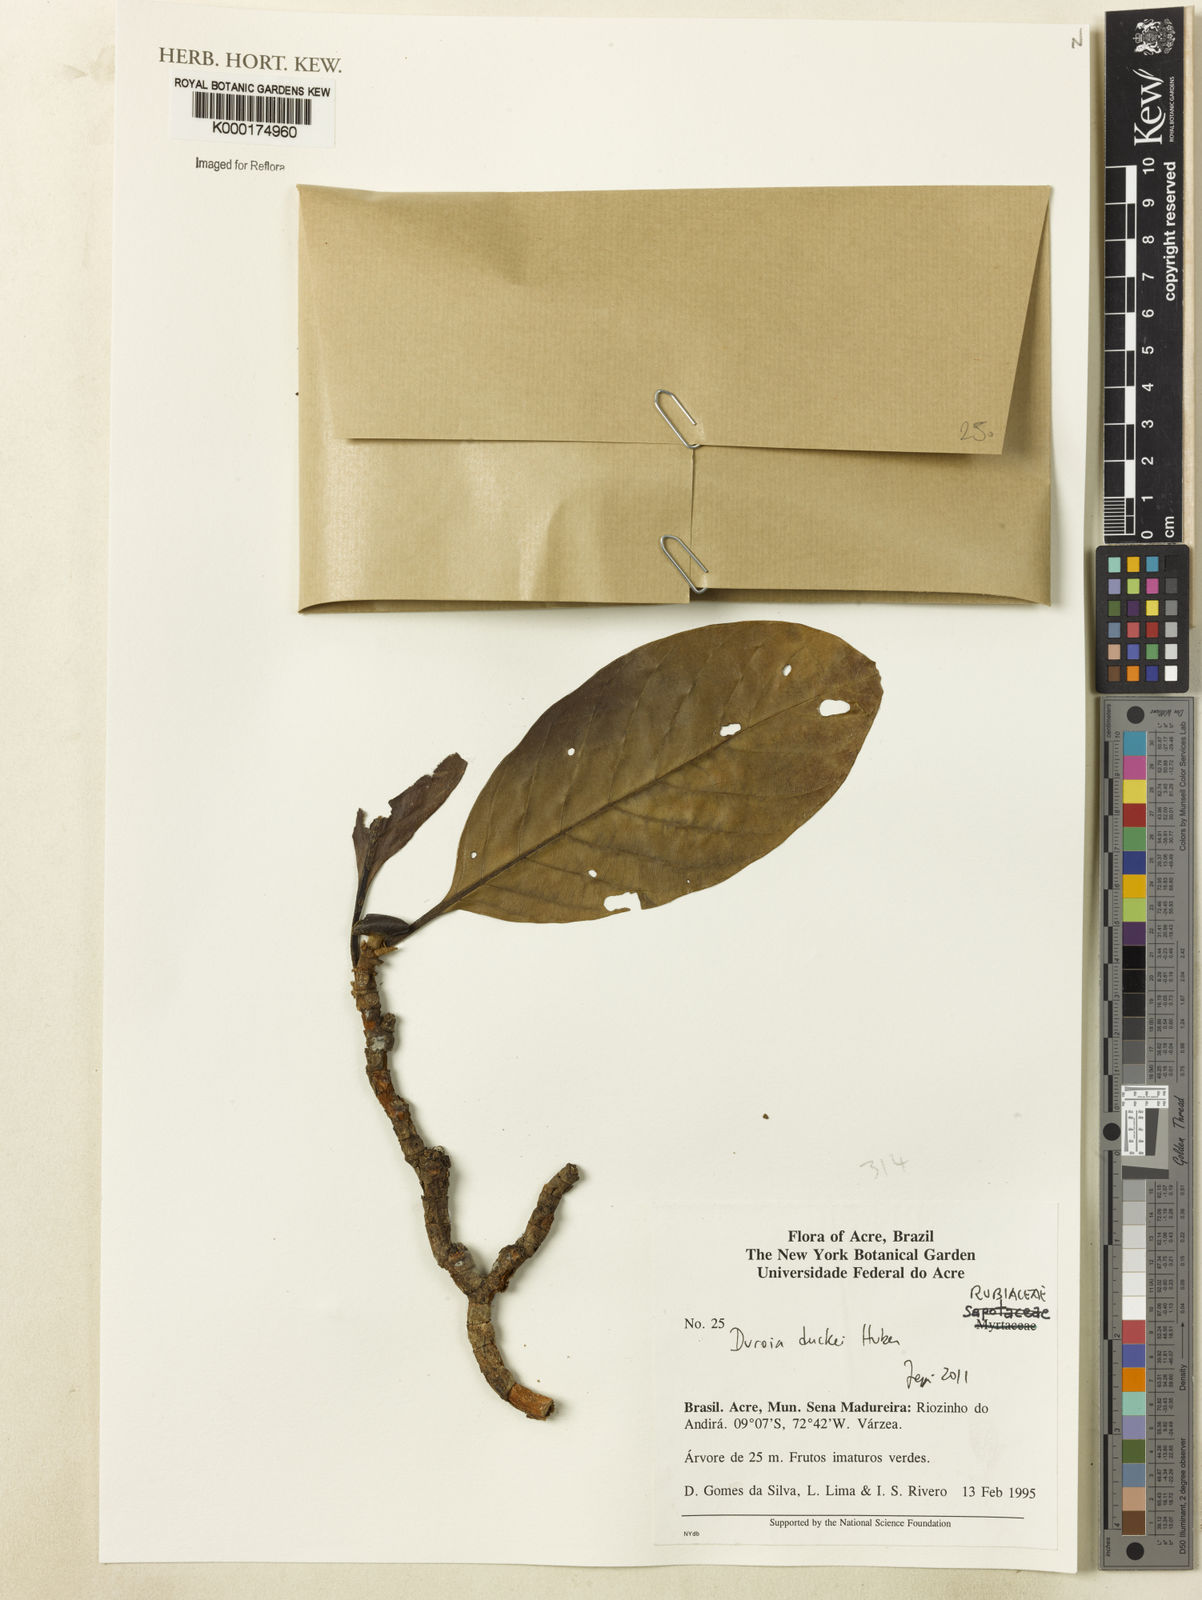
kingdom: Plantae
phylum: Tracheophyta
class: Magnoliopsida
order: Gentianales
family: Rubiaceae
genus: Duroia
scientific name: Duroia duckei
